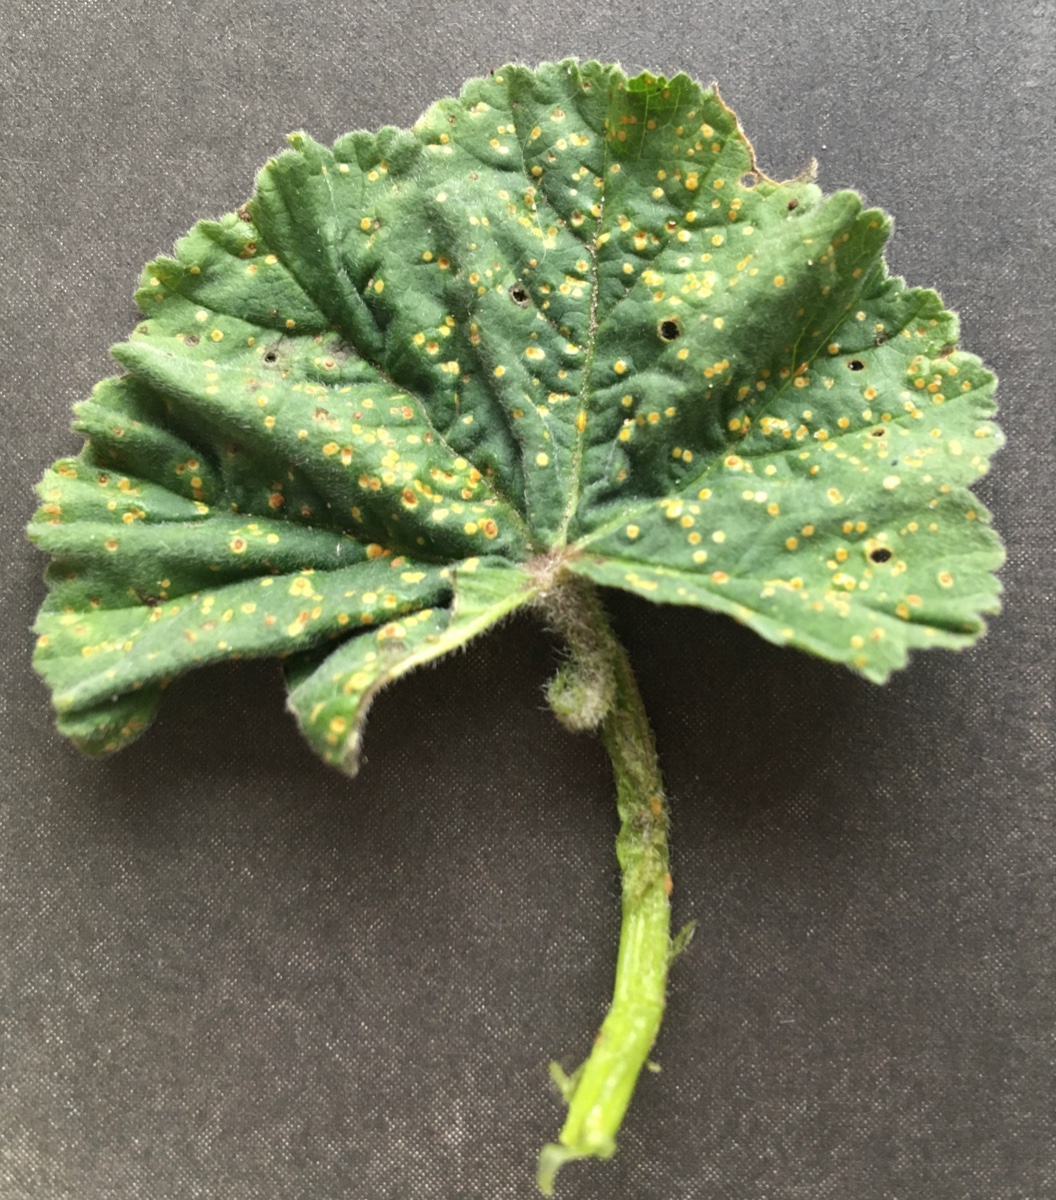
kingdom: Fungi
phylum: Basidiomycota
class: Pucciniomycetes
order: Pucciniales
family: Pucciniaceae
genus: Puccinia
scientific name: Puccinia malvacearum
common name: stokrose-tvecellerust
